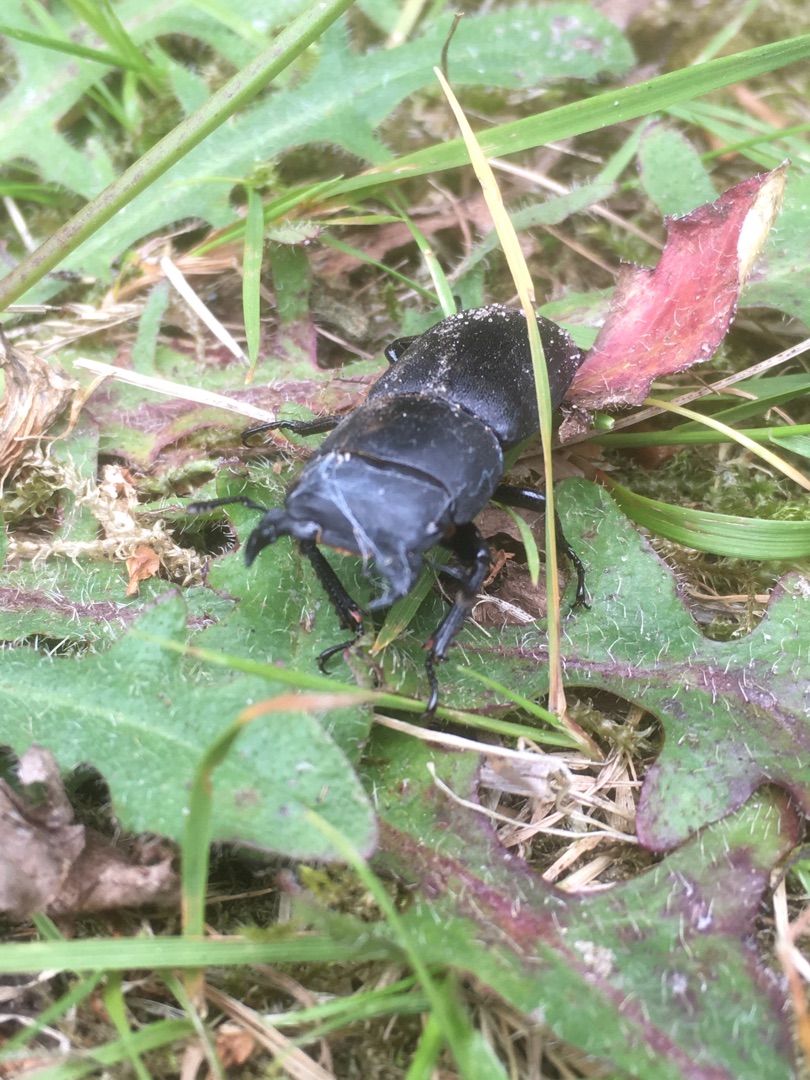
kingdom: Animalia
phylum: Arthropoda
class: Insecta
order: Coleoptera
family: Lucanidae
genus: Dorcus
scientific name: Dorcus parallelipipedus
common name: Bøghjort
